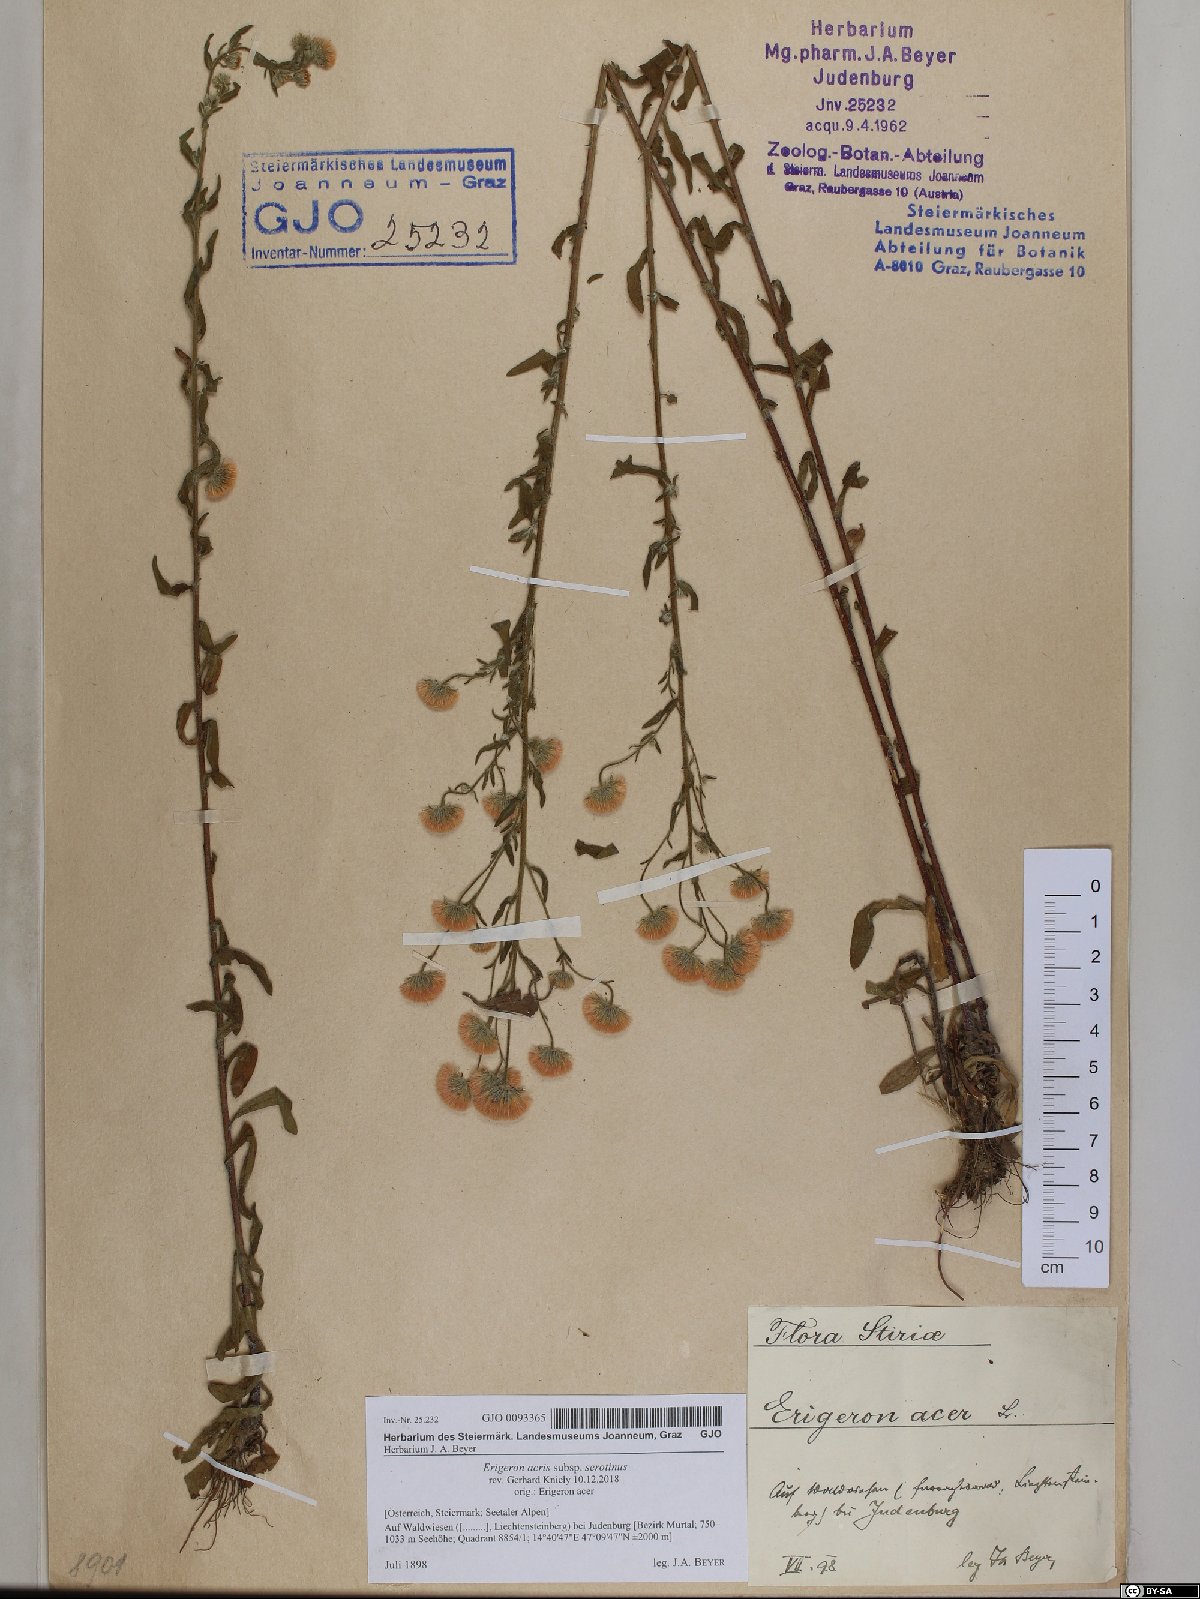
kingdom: Plantae
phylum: Tracheophyta
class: Magnoliopsida
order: Asterales
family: Asteraceae
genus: Erigeron
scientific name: Erigeron muralis
